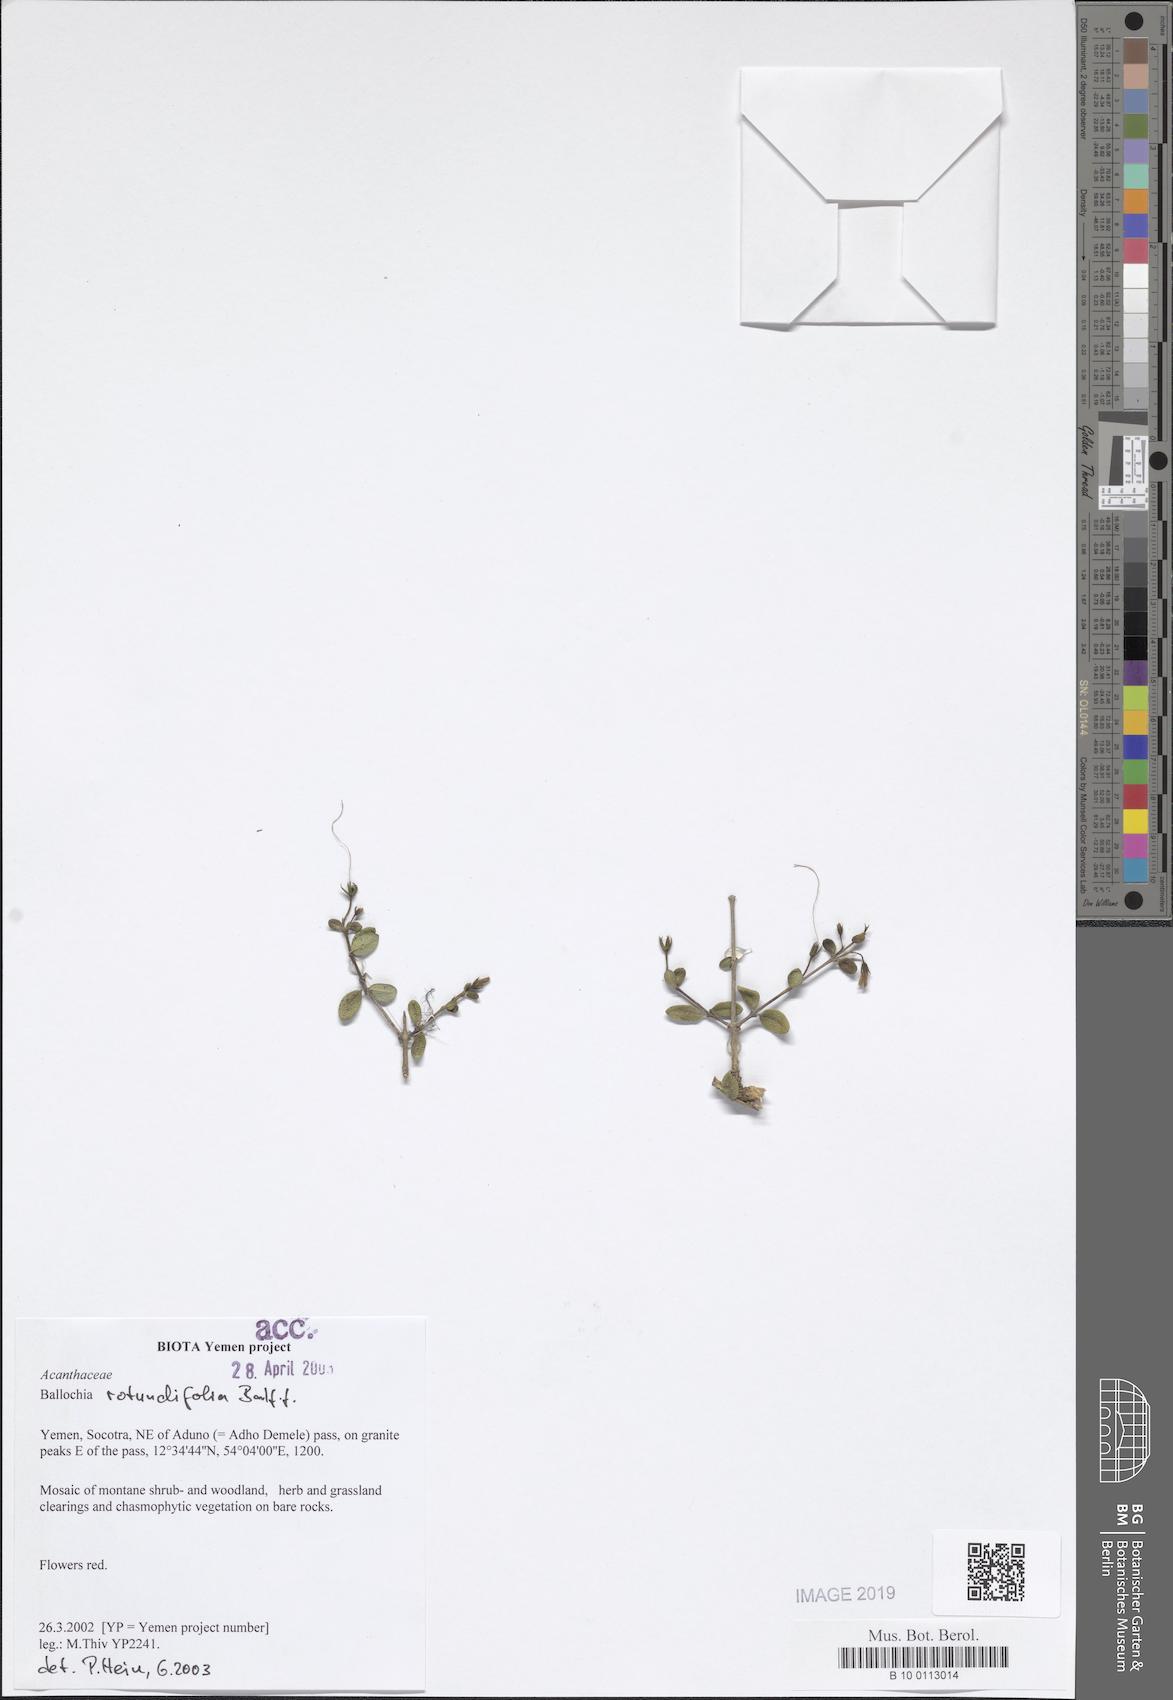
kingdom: Plantae
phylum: Tracheophyta
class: Magnoliopsida
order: Lamiales
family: Acanthaceae
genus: Ballochia
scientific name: Ballochia rotundifolia
